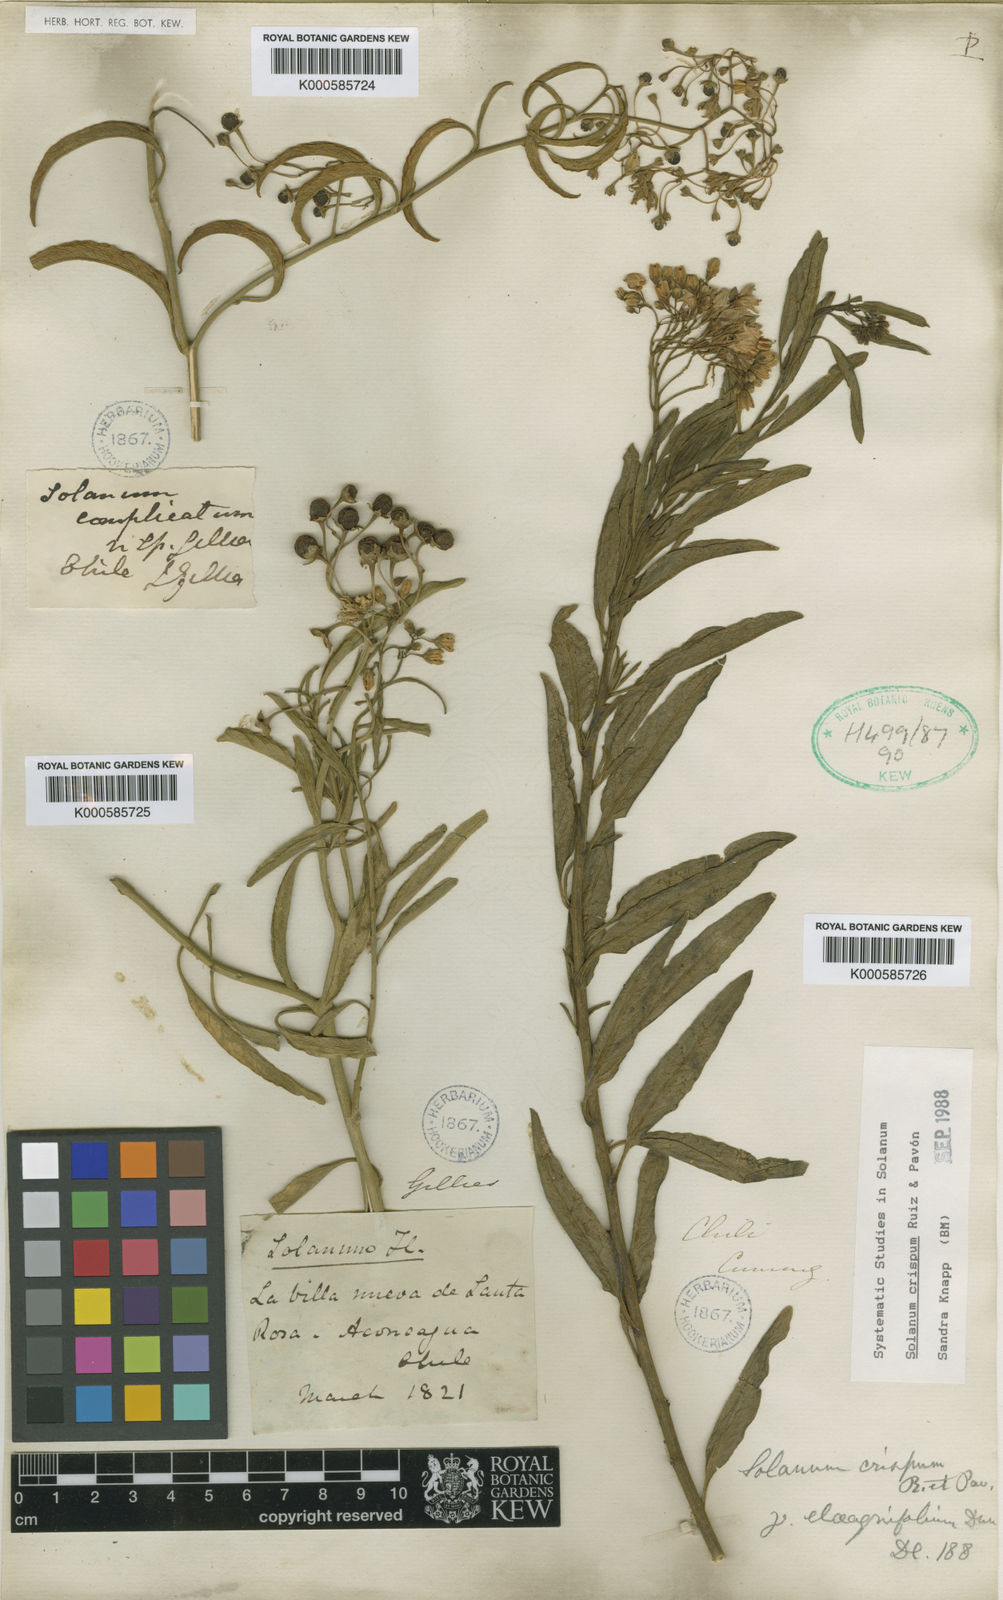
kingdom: Plantae
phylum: Tracheophyta
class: Magnoliopsida
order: Solanales
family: Solanaceae
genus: Solanum
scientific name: Solanum crispum
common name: Chilean nightshade
